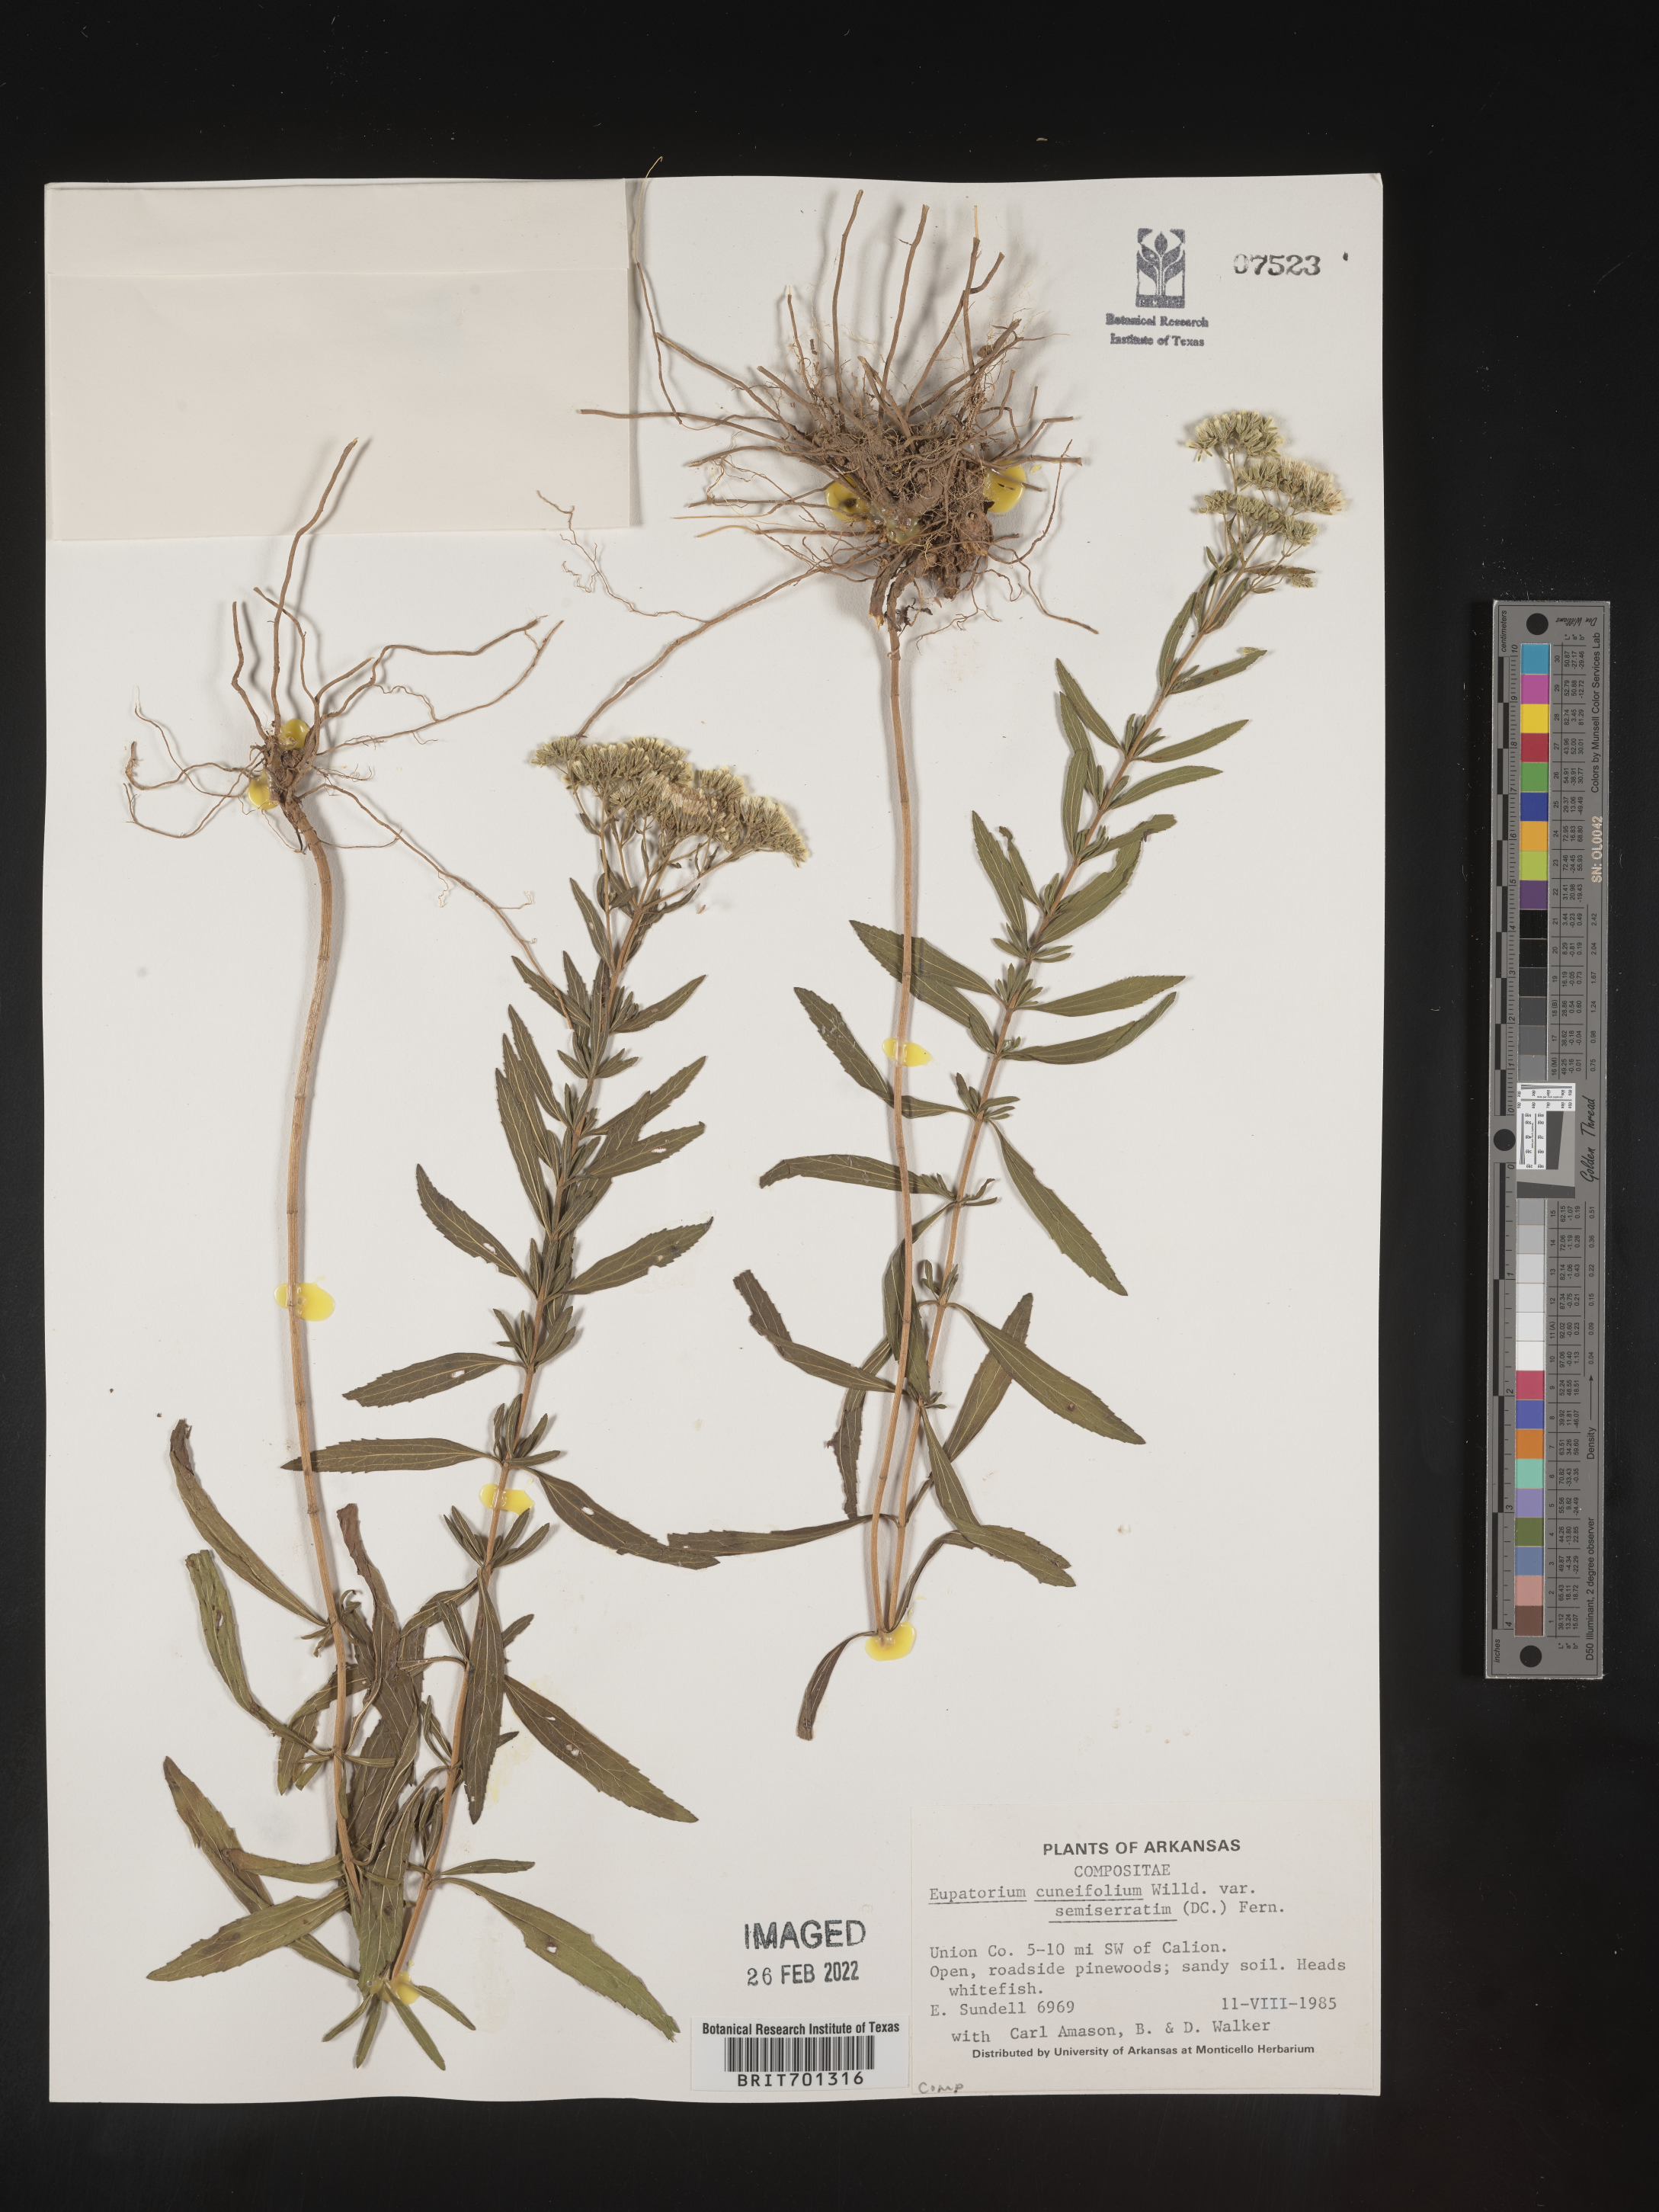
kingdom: Plantae
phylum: Tracheophyta
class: Magnoliopsida
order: Asterales
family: Asteraceae
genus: Eupatorium
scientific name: Eupatorium linearifolium
